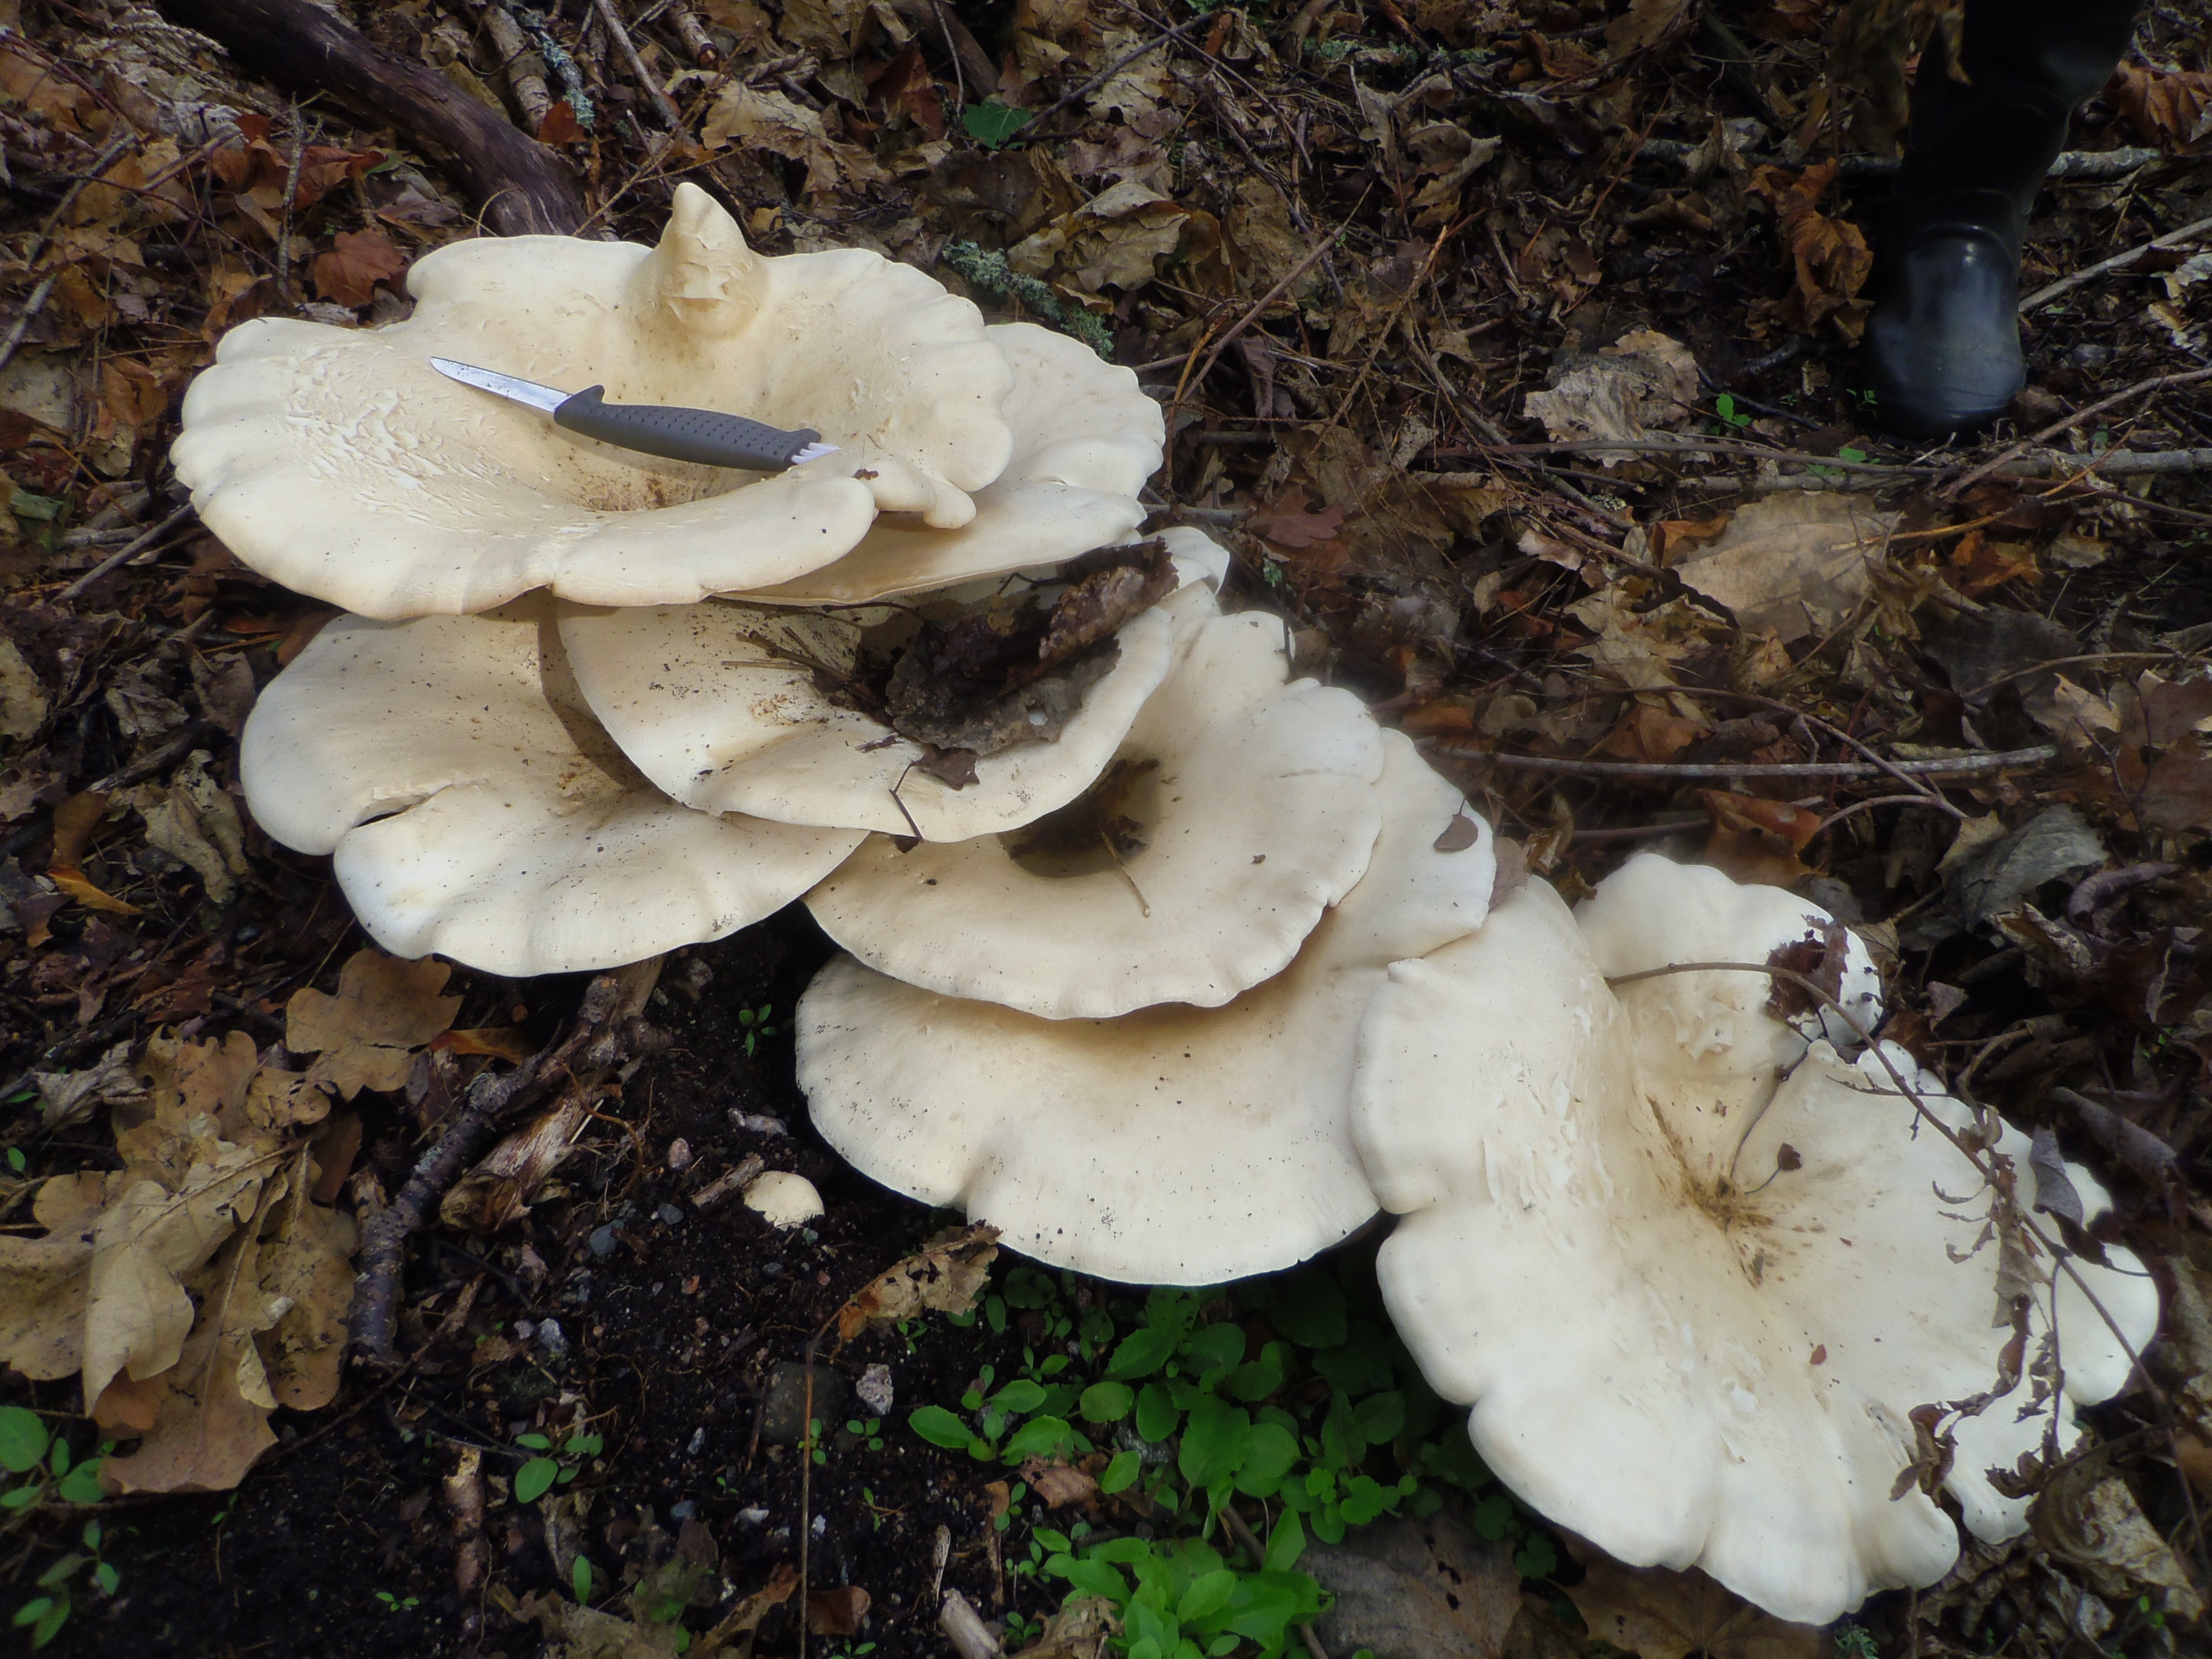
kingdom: Fungi
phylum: Basidiomycota
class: Agaricomycetes
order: Agaricales
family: Tricholomataceae
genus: Aspropaxillus
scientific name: Aspropaxillus giganteus
